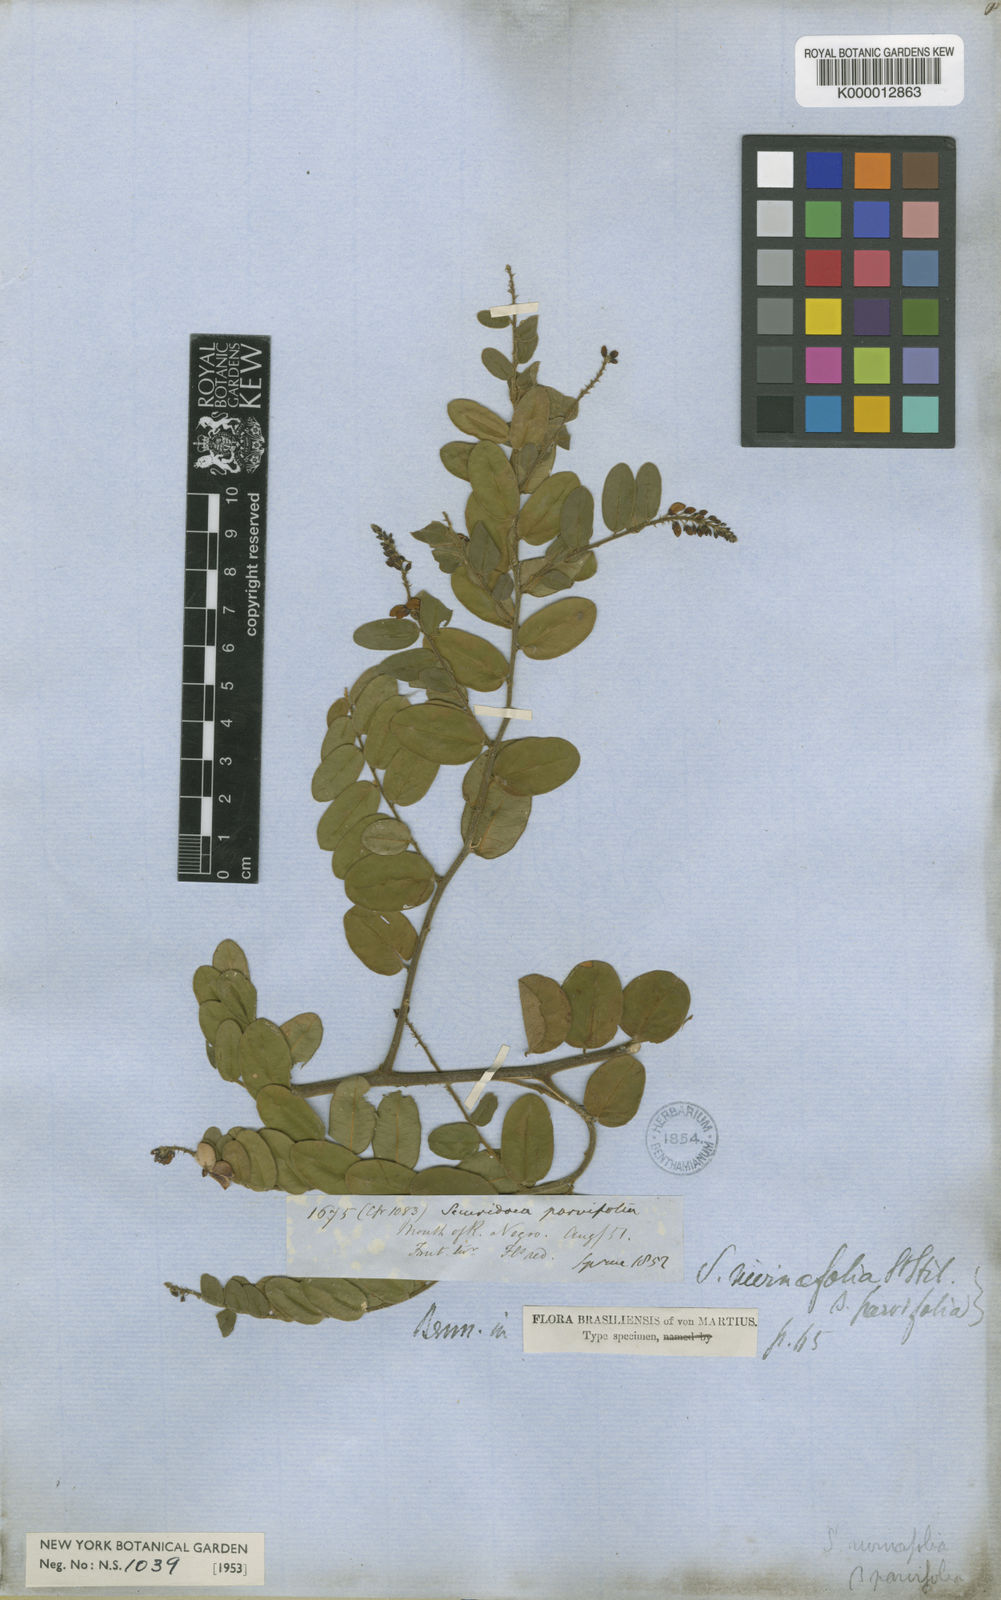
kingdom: Plantae
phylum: Tracheophyta
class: Magnoliopsida
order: Fabales
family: Polygalaceae
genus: Securidaca
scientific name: Securidaca rivinifolia
